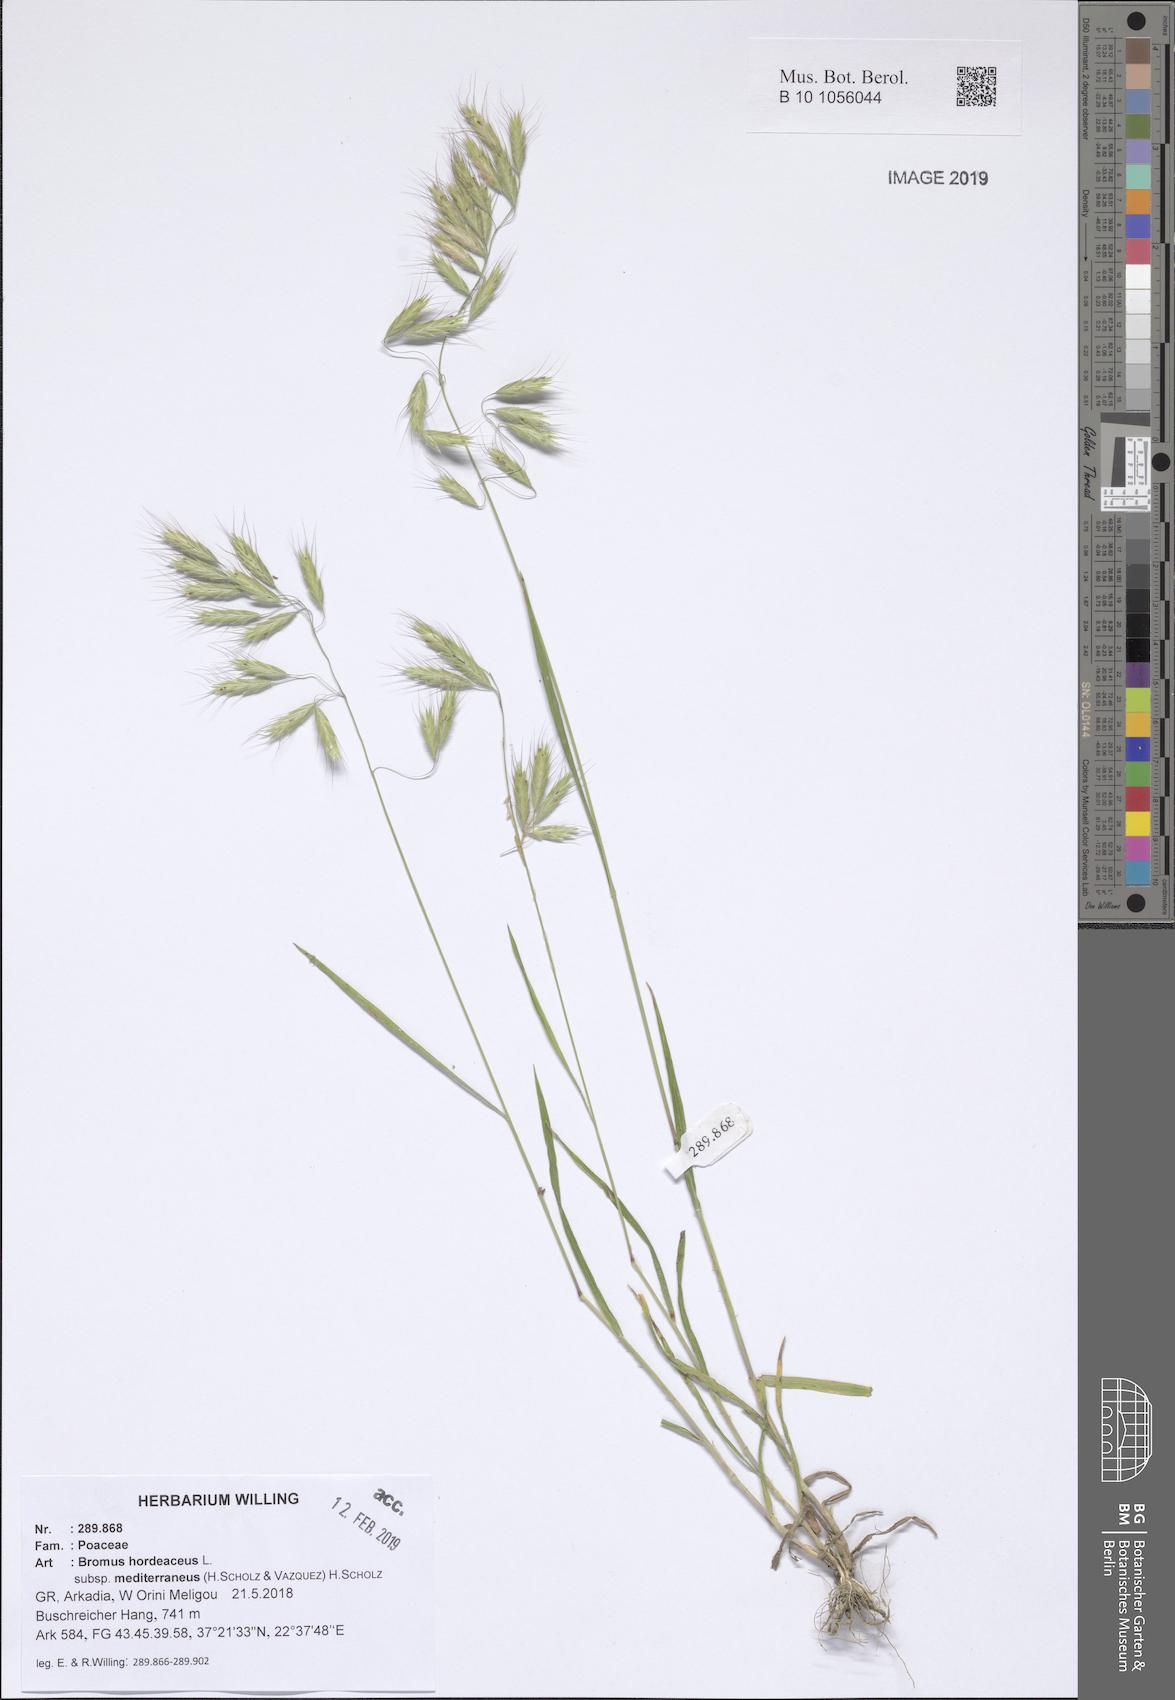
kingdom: Plantae
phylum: Tracheophyta
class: Liliopsida
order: Poales
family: Poaceae
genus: Bromus
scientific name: Bromus hordeaceus
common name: Soft brome
